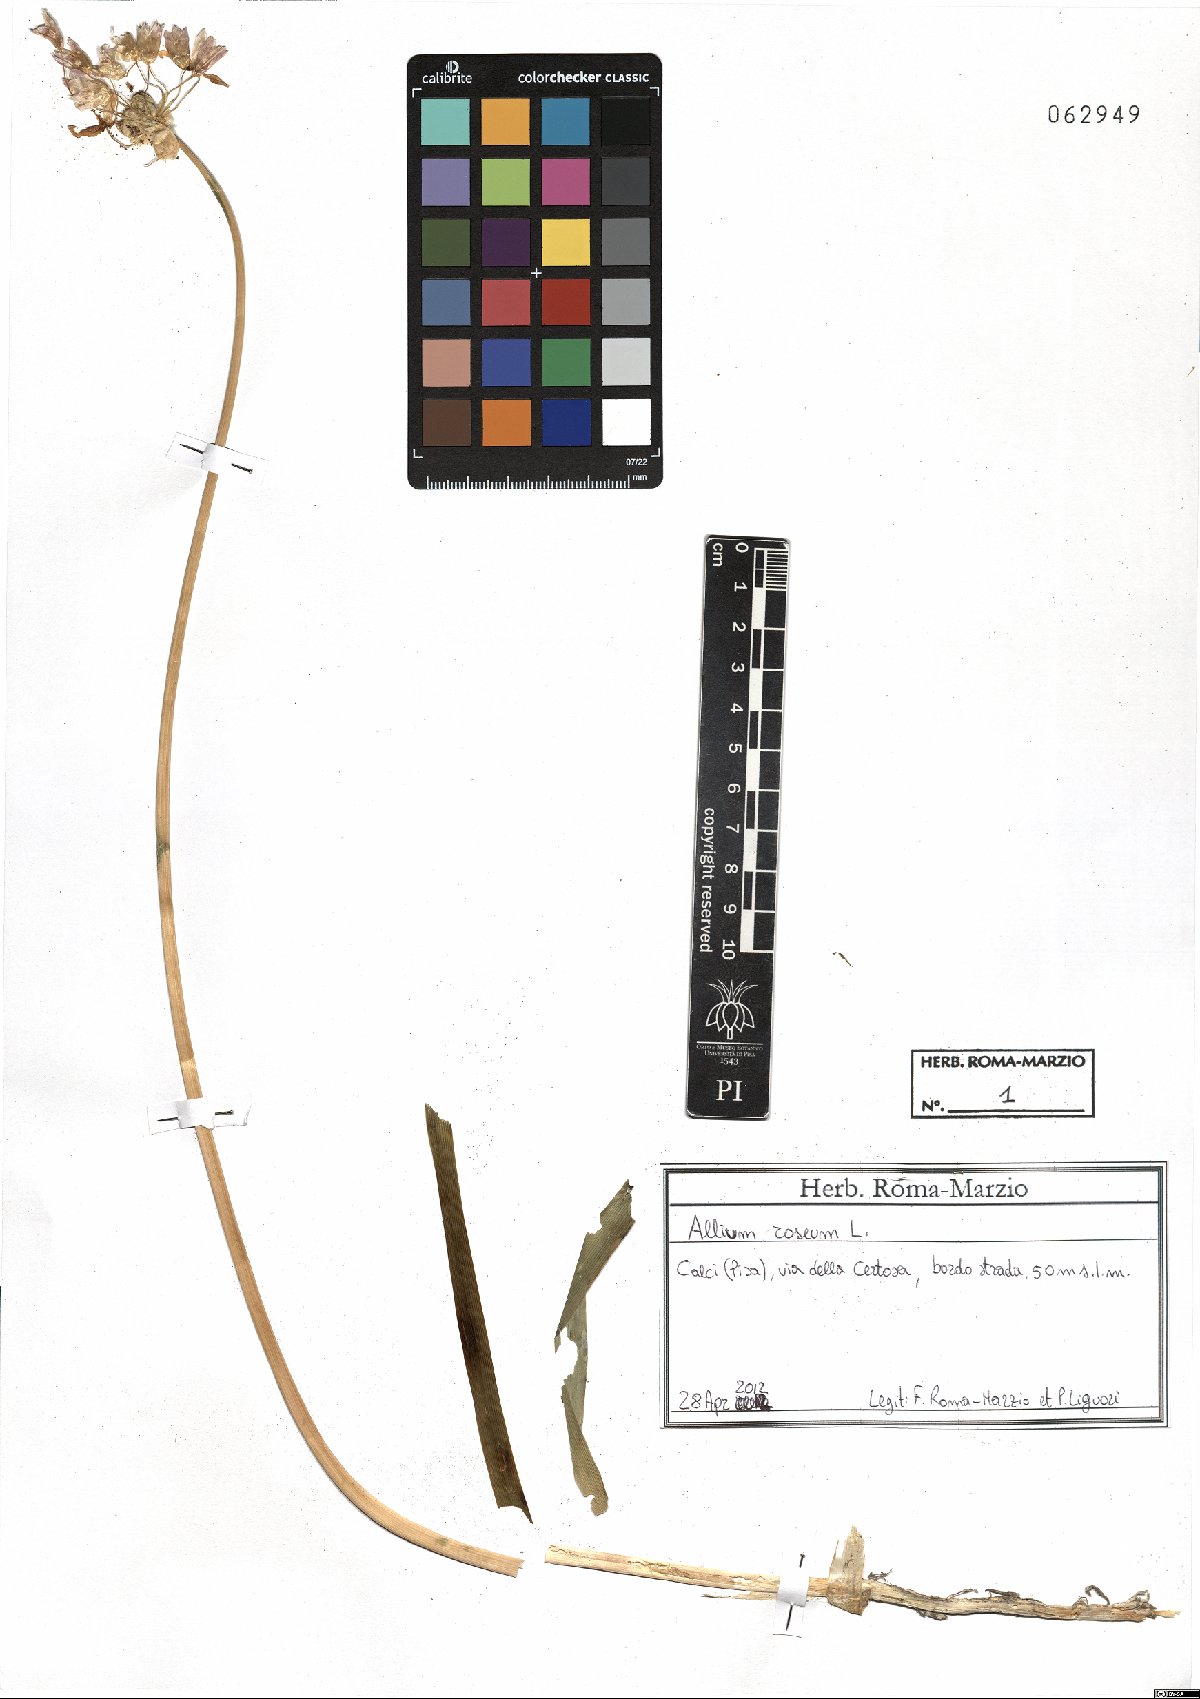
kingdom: Plantae
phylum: Tracheophyta
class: Liliopsida
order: Asparagales
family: Amaryllidaceae
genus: Allium
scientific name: Allium roseum
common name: Rosy garlic
